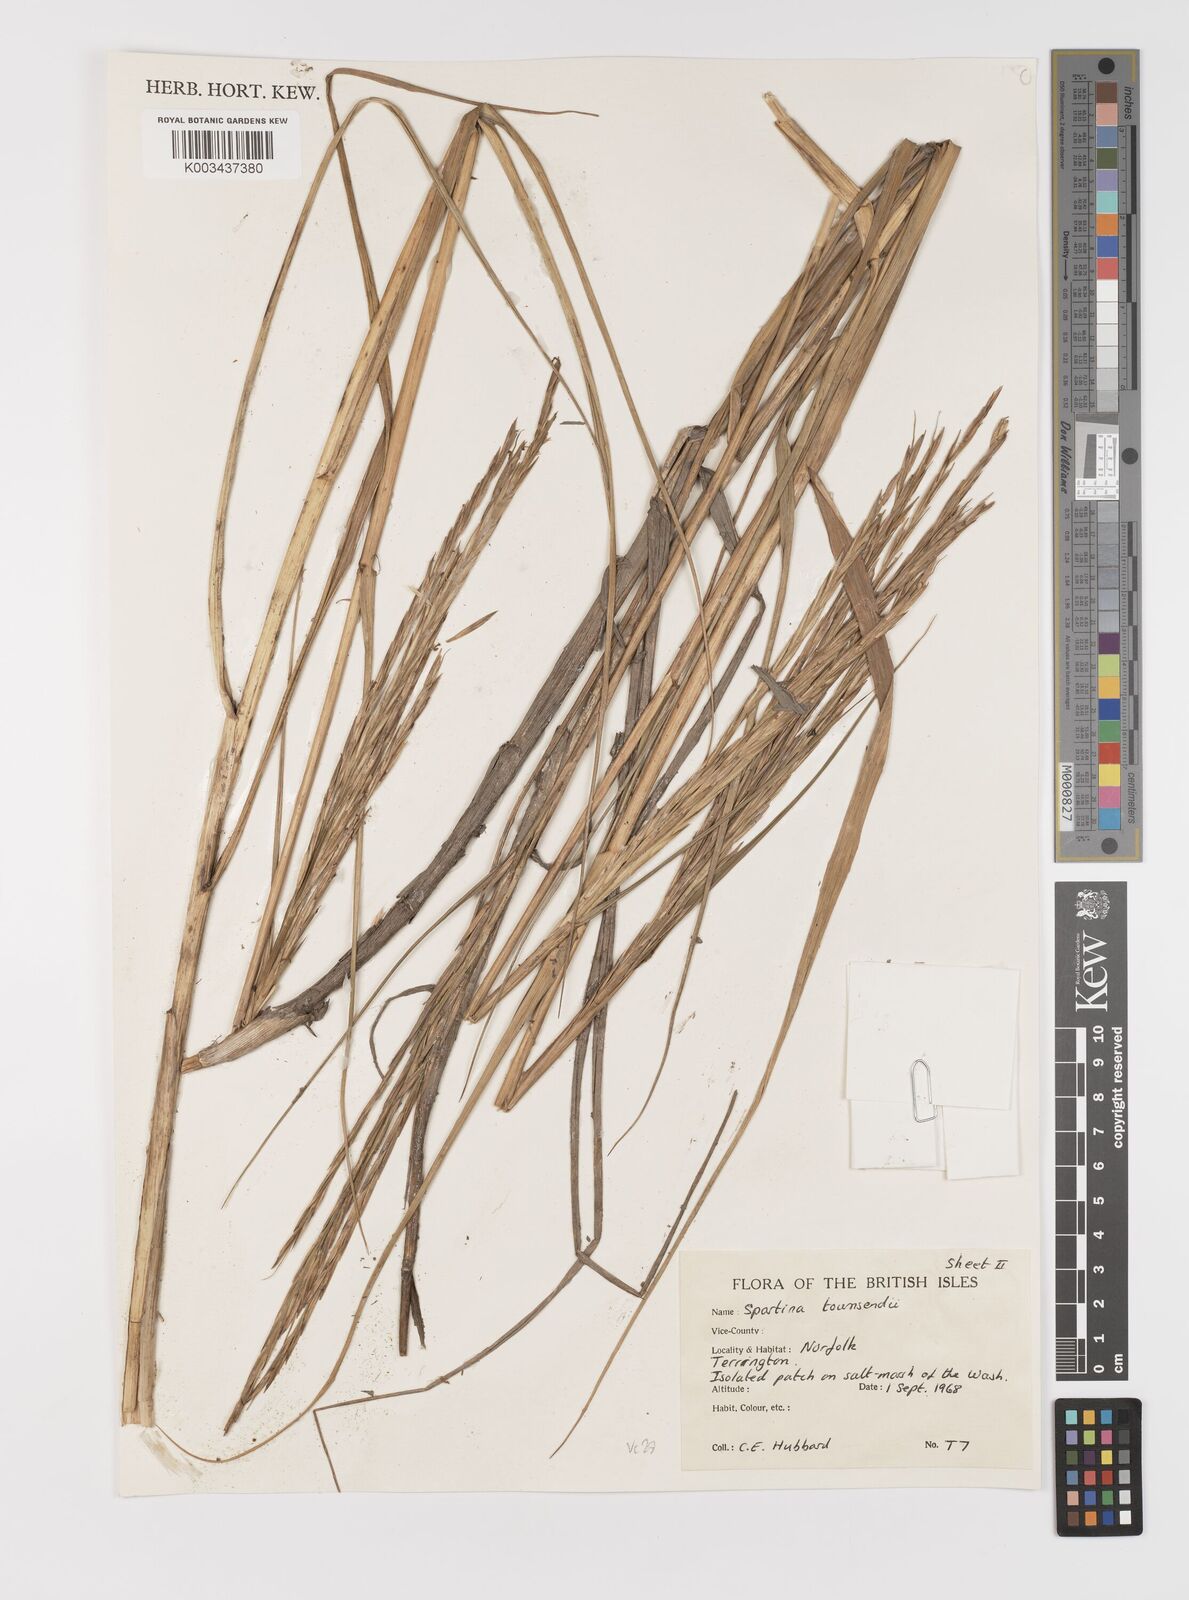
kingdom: Plantae
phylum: Tracheophyta
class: Liliopsida
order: Poales
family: Poaceae
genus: Sporobolus
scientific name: Sporobolus townsendii
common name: Townsend's cordgrass
